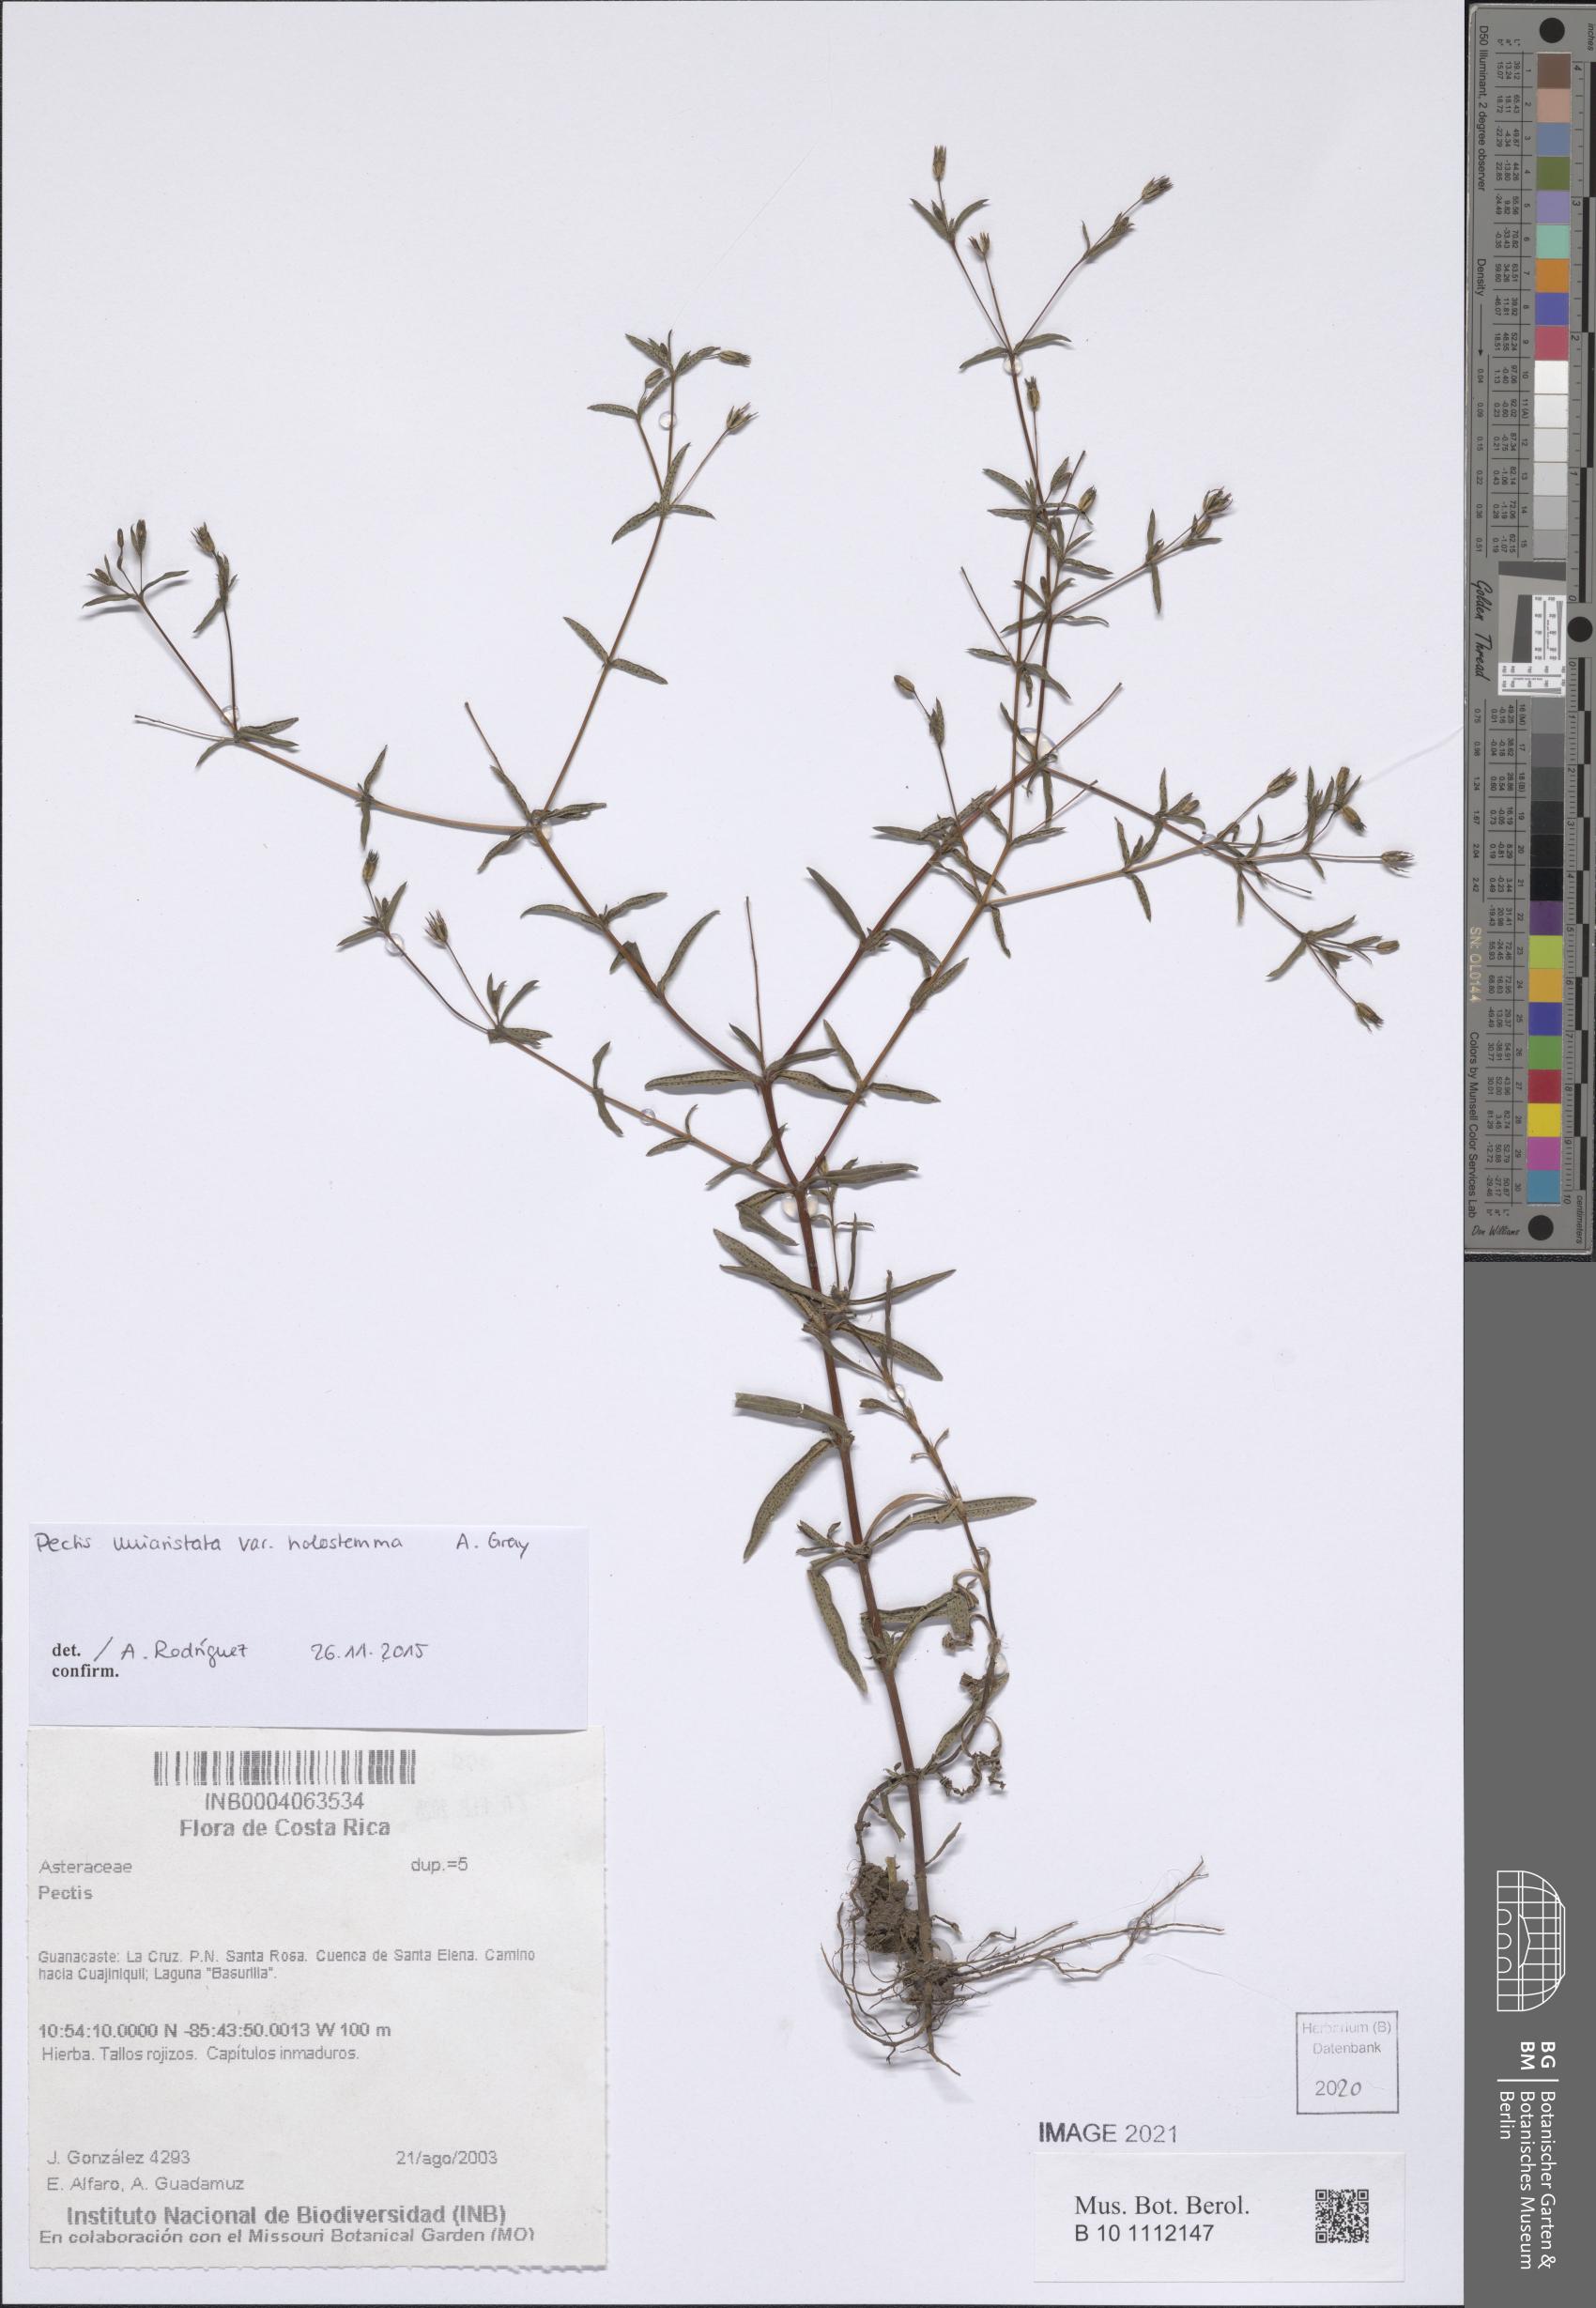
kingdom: Plantae
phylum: Tracheophyta
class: Magnoliopsida
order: Asterales
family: Asteraceae
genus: Pectis
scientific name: Pectis uniaristata
